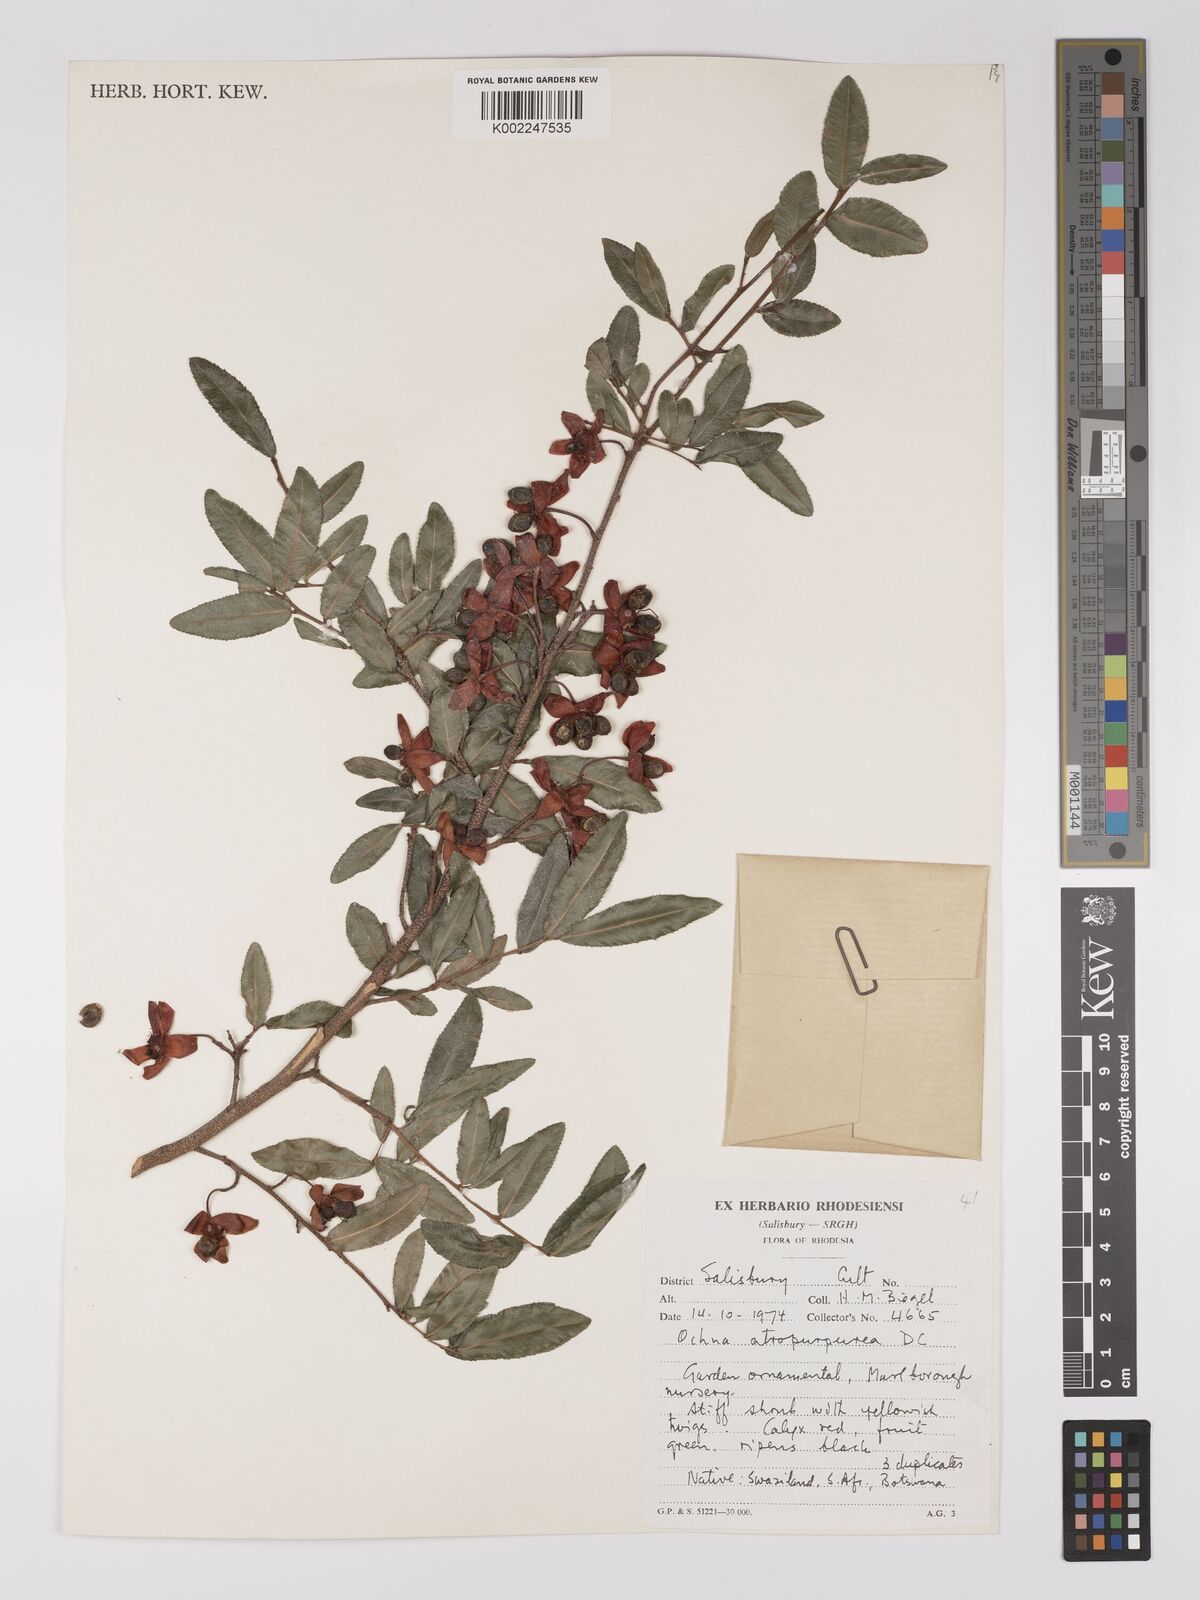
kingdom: Plantae
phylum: Tracheophyta
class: Magnoliopsida
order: Malpighiales
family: Ochnaceae
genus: Ochna
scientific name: Ochna atropurpurea
